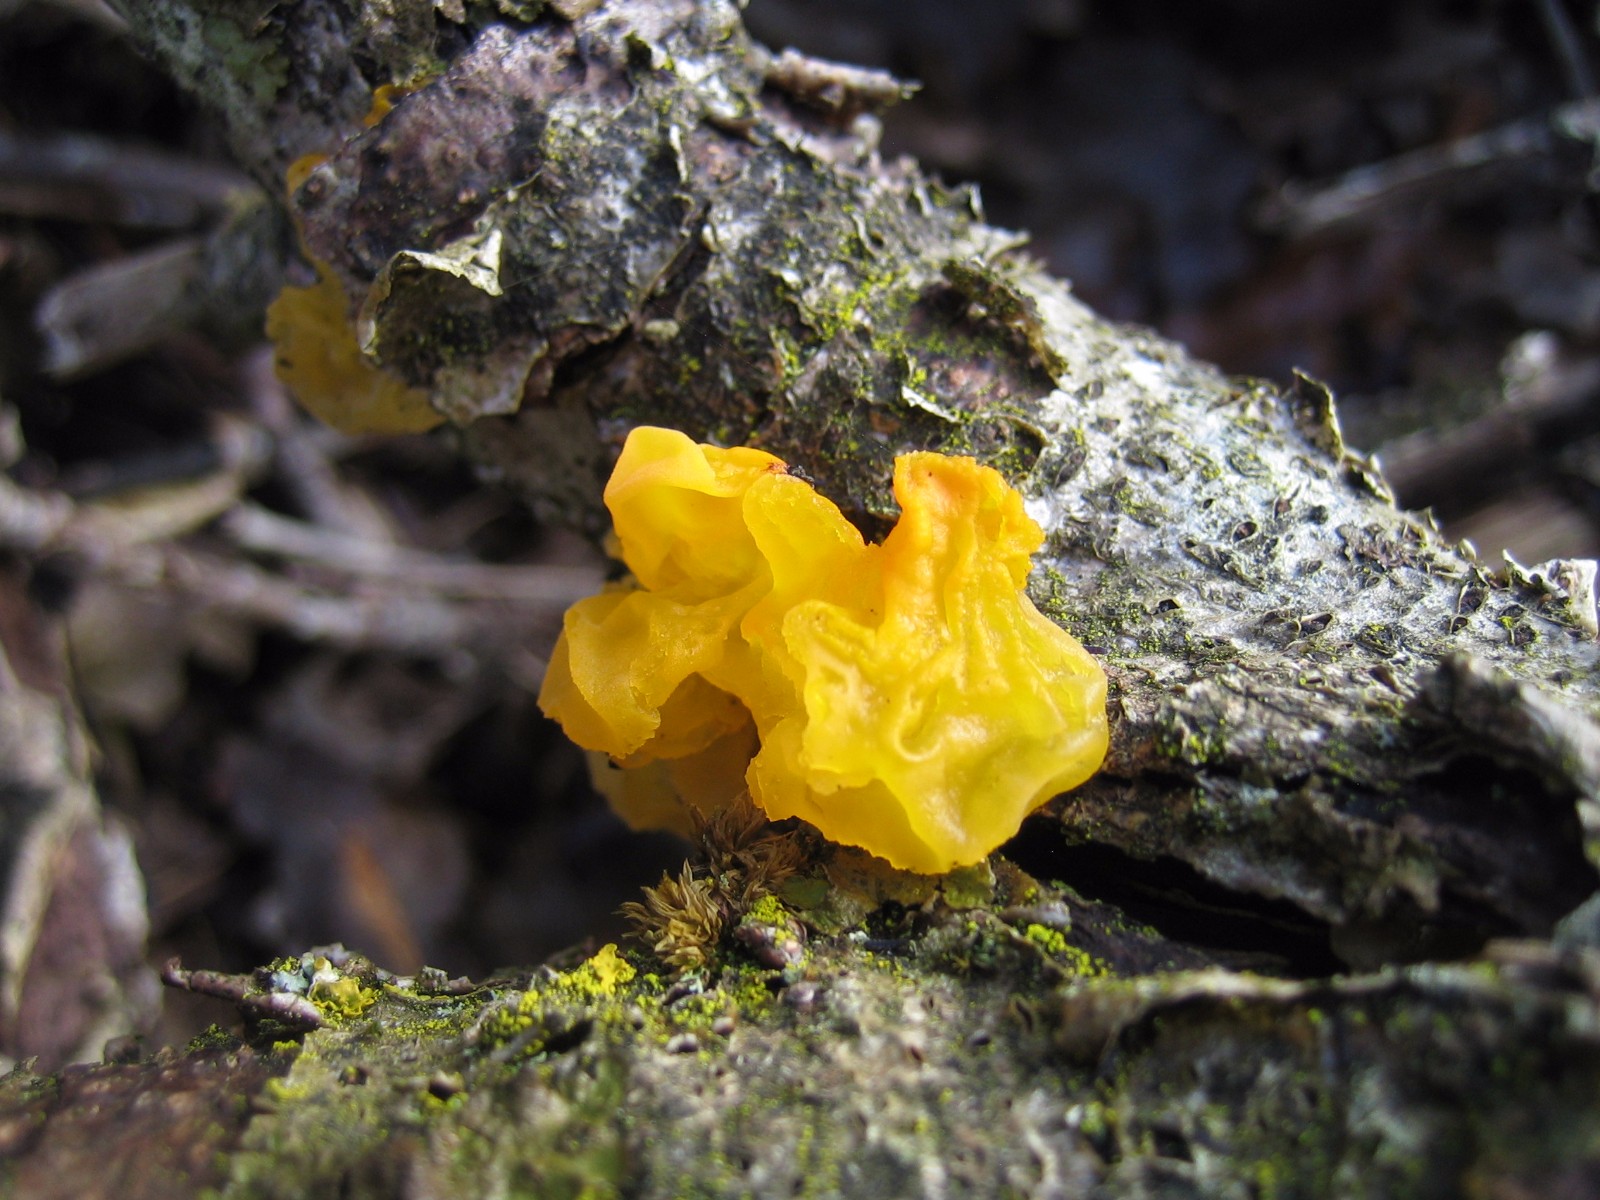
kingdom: Fungi
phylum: Basidiomycota
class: Tremellomycetes
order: Tremellales
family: Tremellaceae
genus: Tremella
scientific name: Tremella mesenterica
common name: gul bævresvamp
